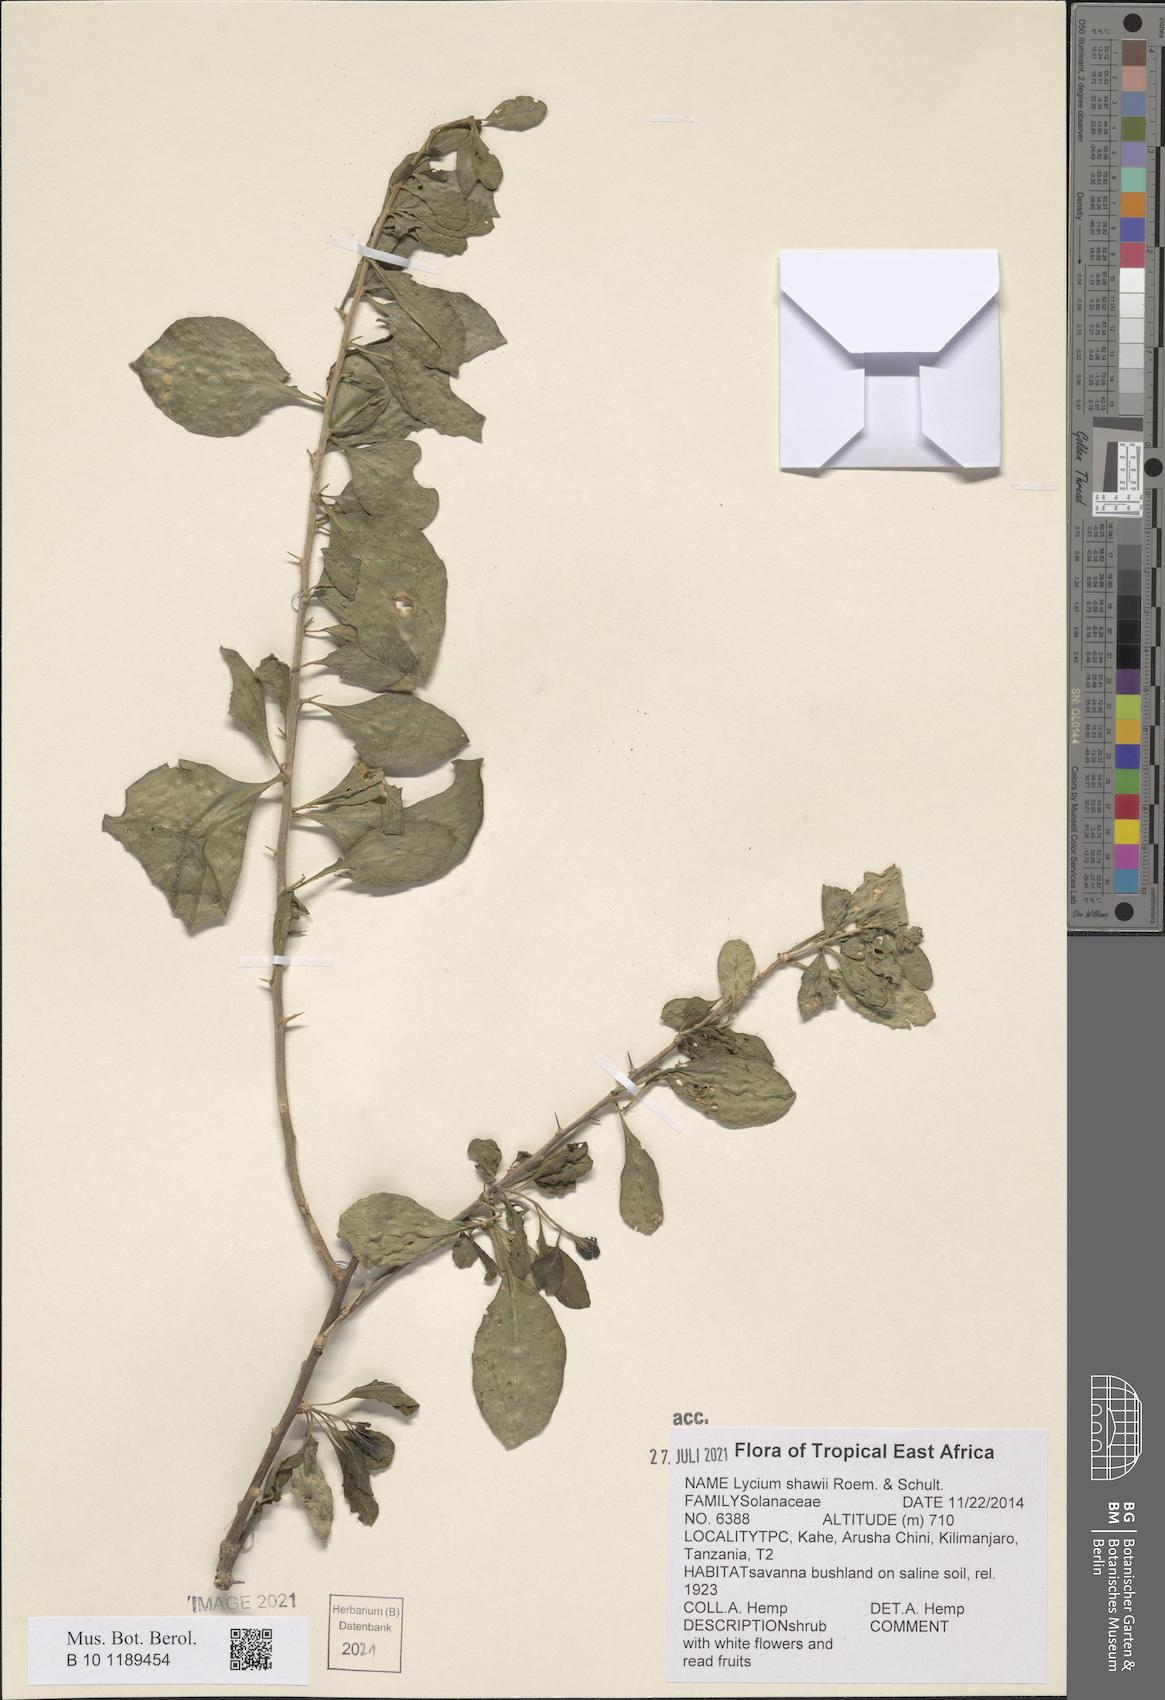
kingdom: Plantae
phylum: Tracheophyta
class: Magnoliopsida
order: Solanales
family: Solanaceae
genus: Lycium
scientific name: Lycium shawii
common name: Boxthorn
